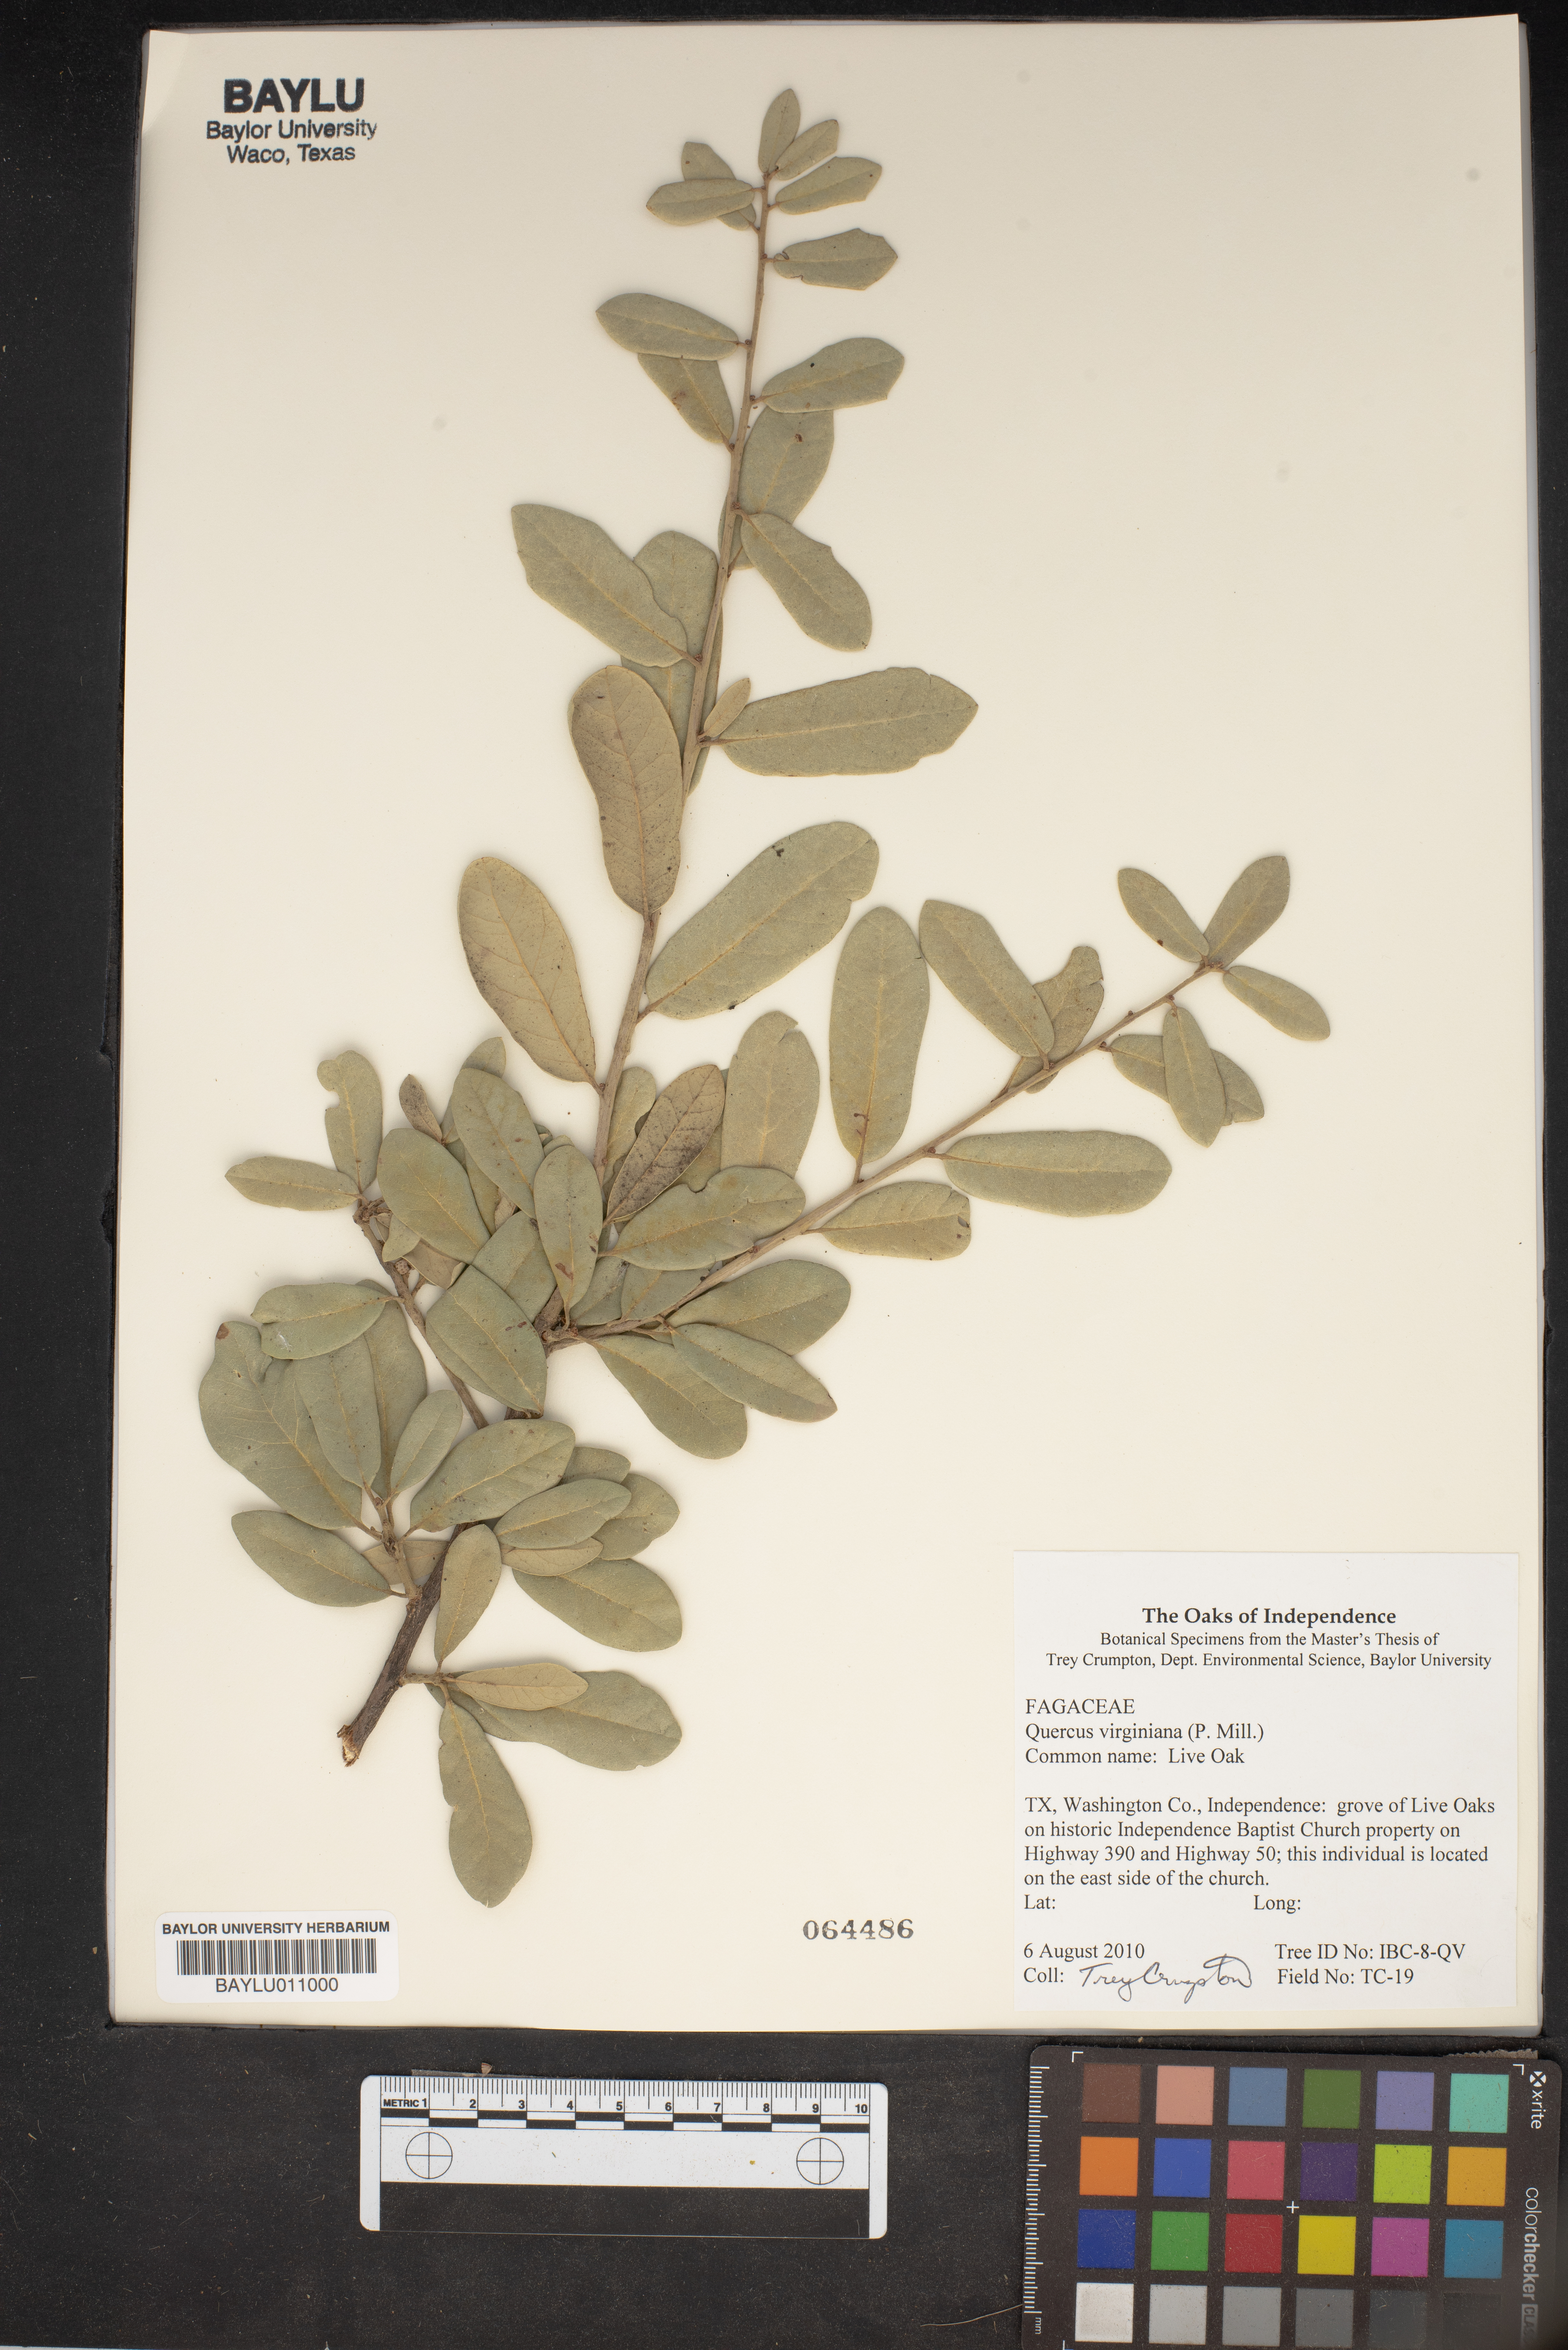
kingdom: Plantae
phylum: Tracheophyta
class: Magnoliopsida
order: Fagales
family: Fagaceae
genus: Quercus
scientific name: Quercus virginiana
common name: Southern live oak
